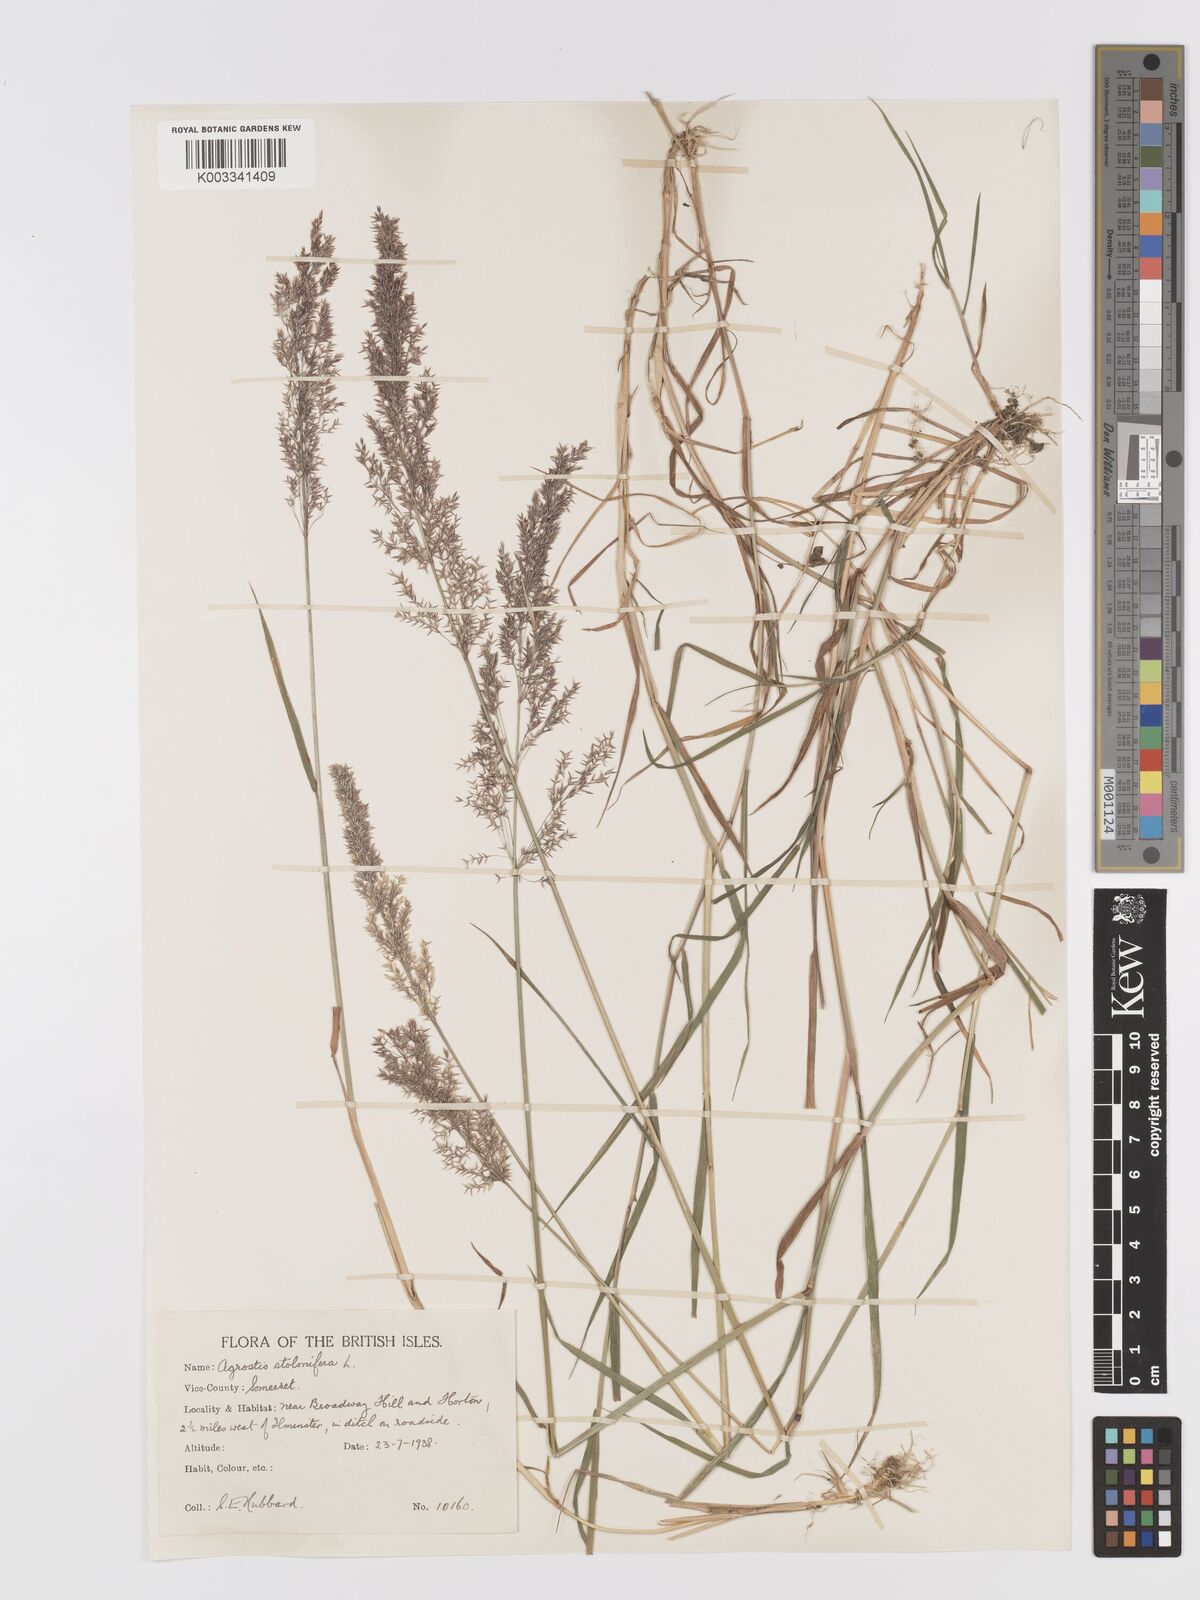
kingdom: Plantae
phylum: Tracheophyta
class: Liliopsida
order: Poales
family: Poaceae
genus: Agrostis
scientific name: Agrostis stolonifera
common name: Creeping bentgrass
